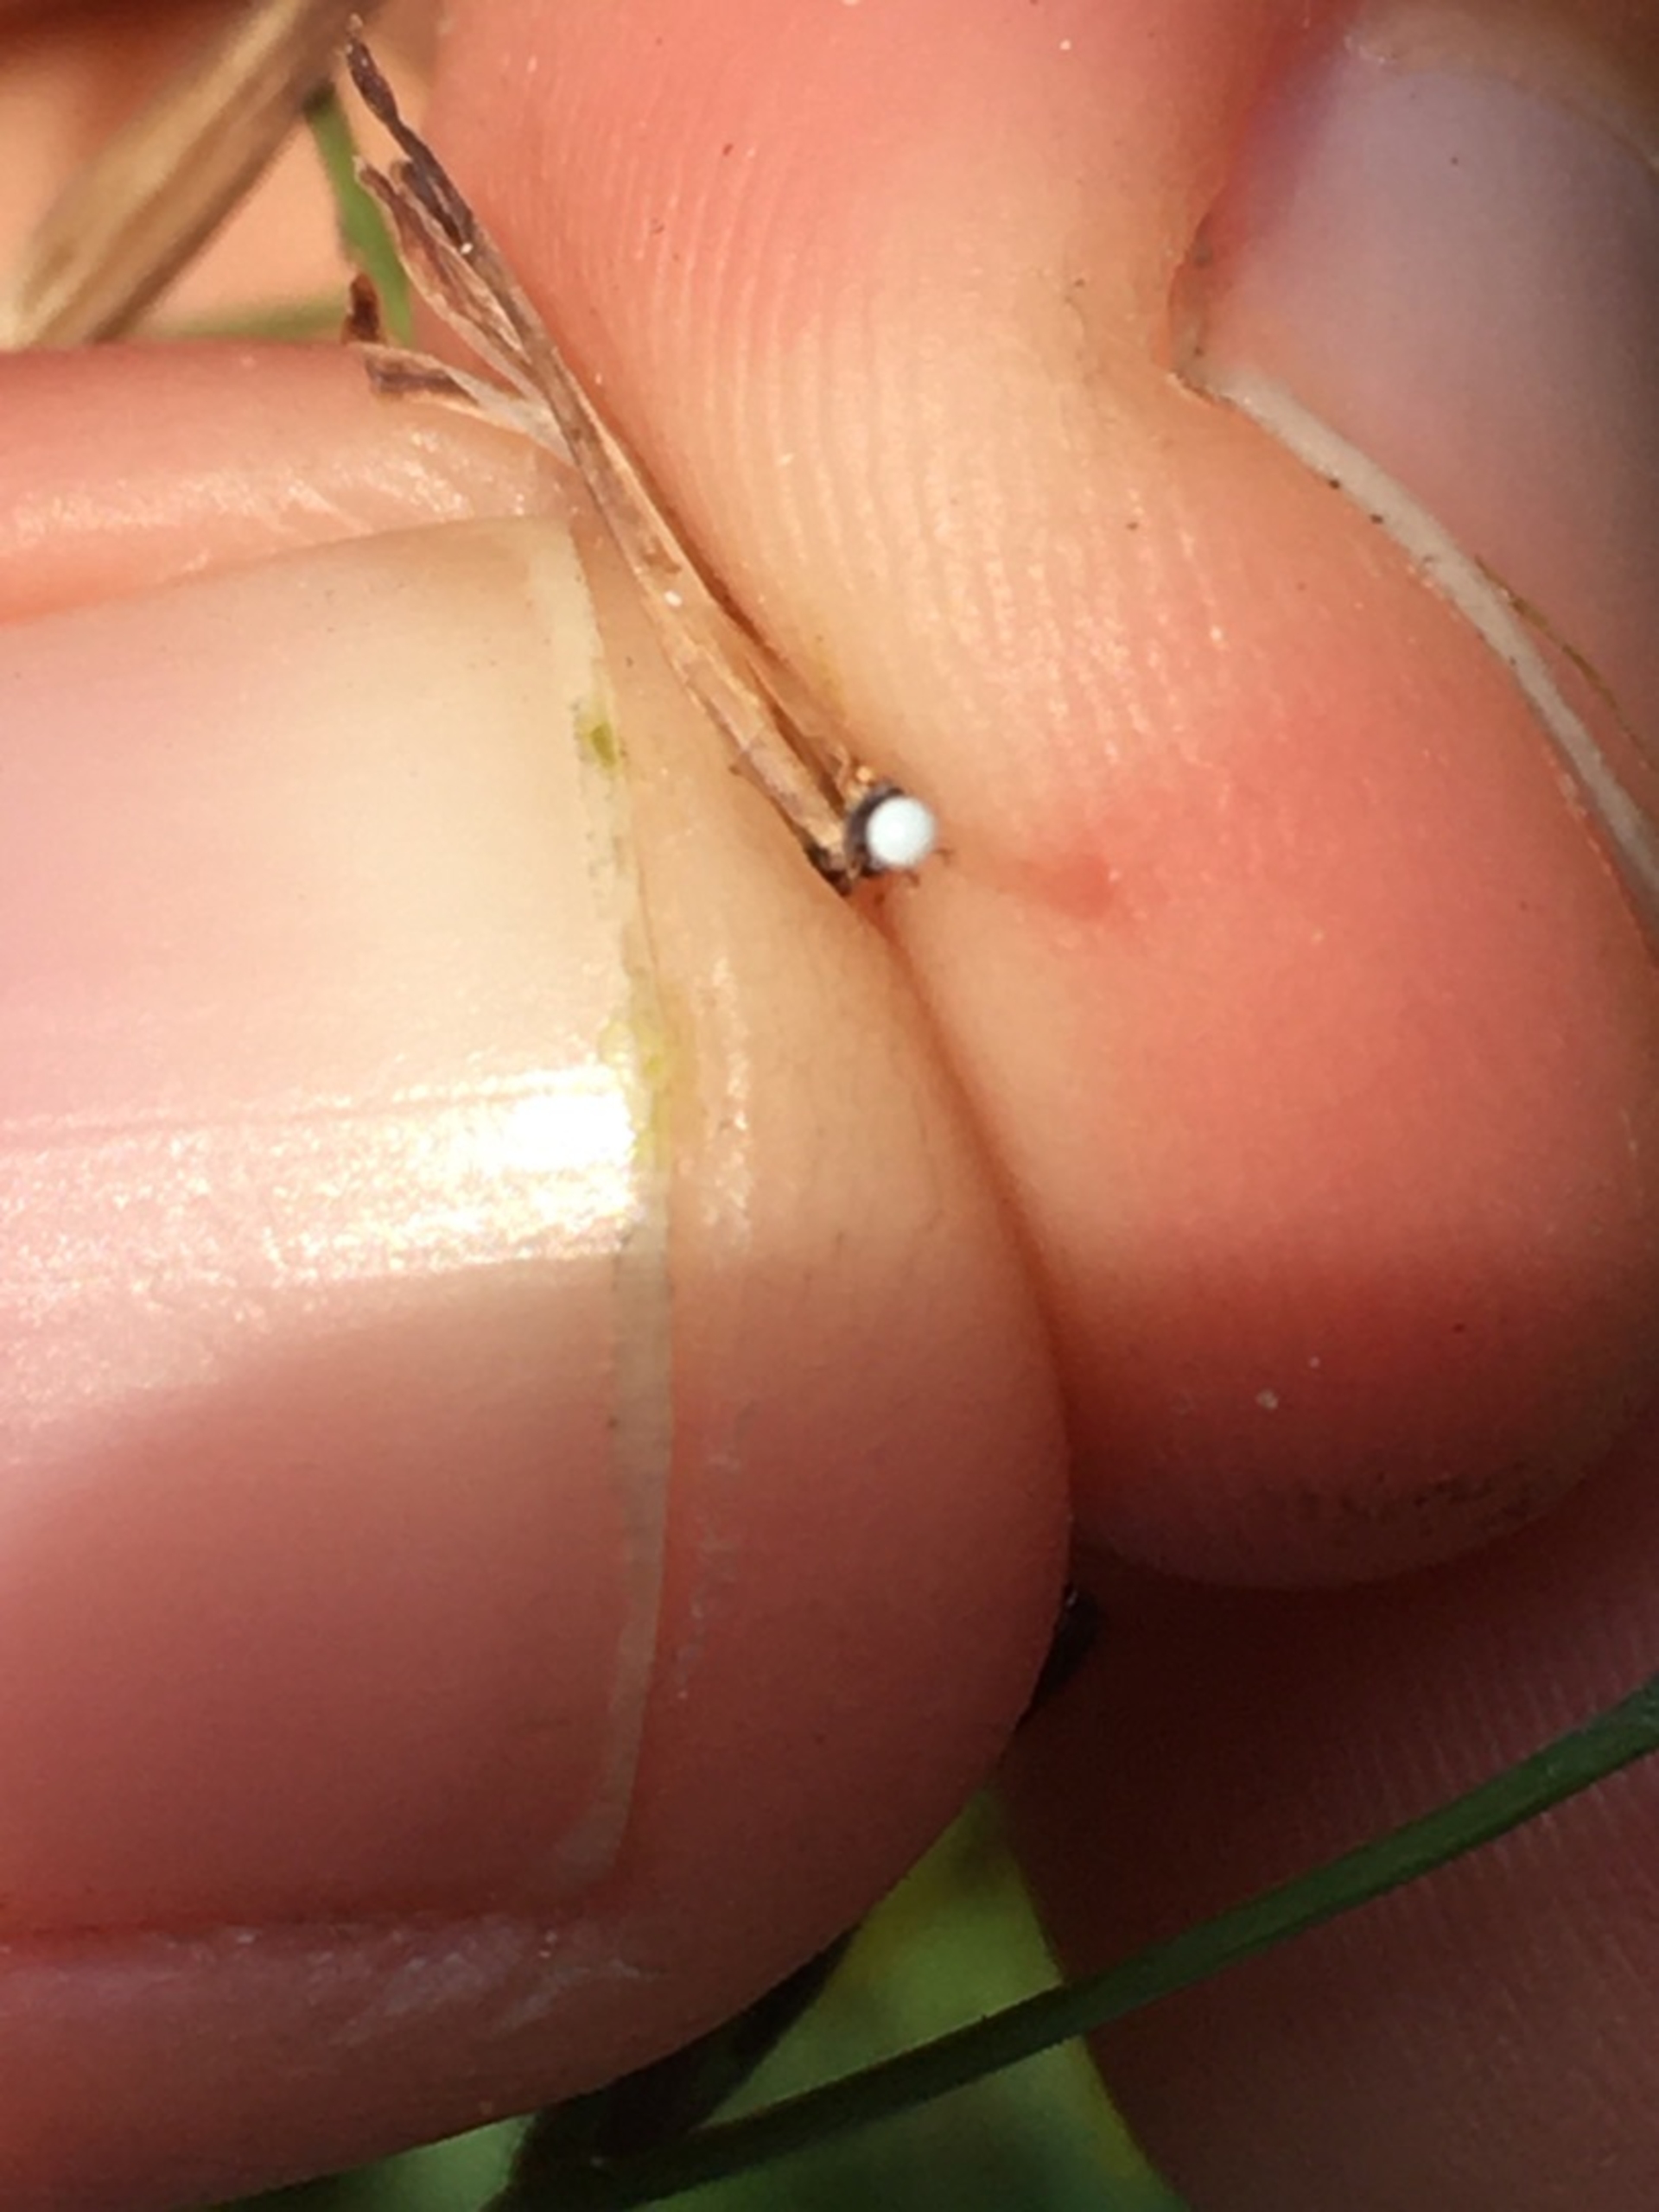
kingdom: Plantae
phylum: Tracheophyta
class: Magnoliopsida
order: Asterales
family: Asteraceae
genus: Mycelis
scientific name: Mycelis muralis
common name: Skov-salat
